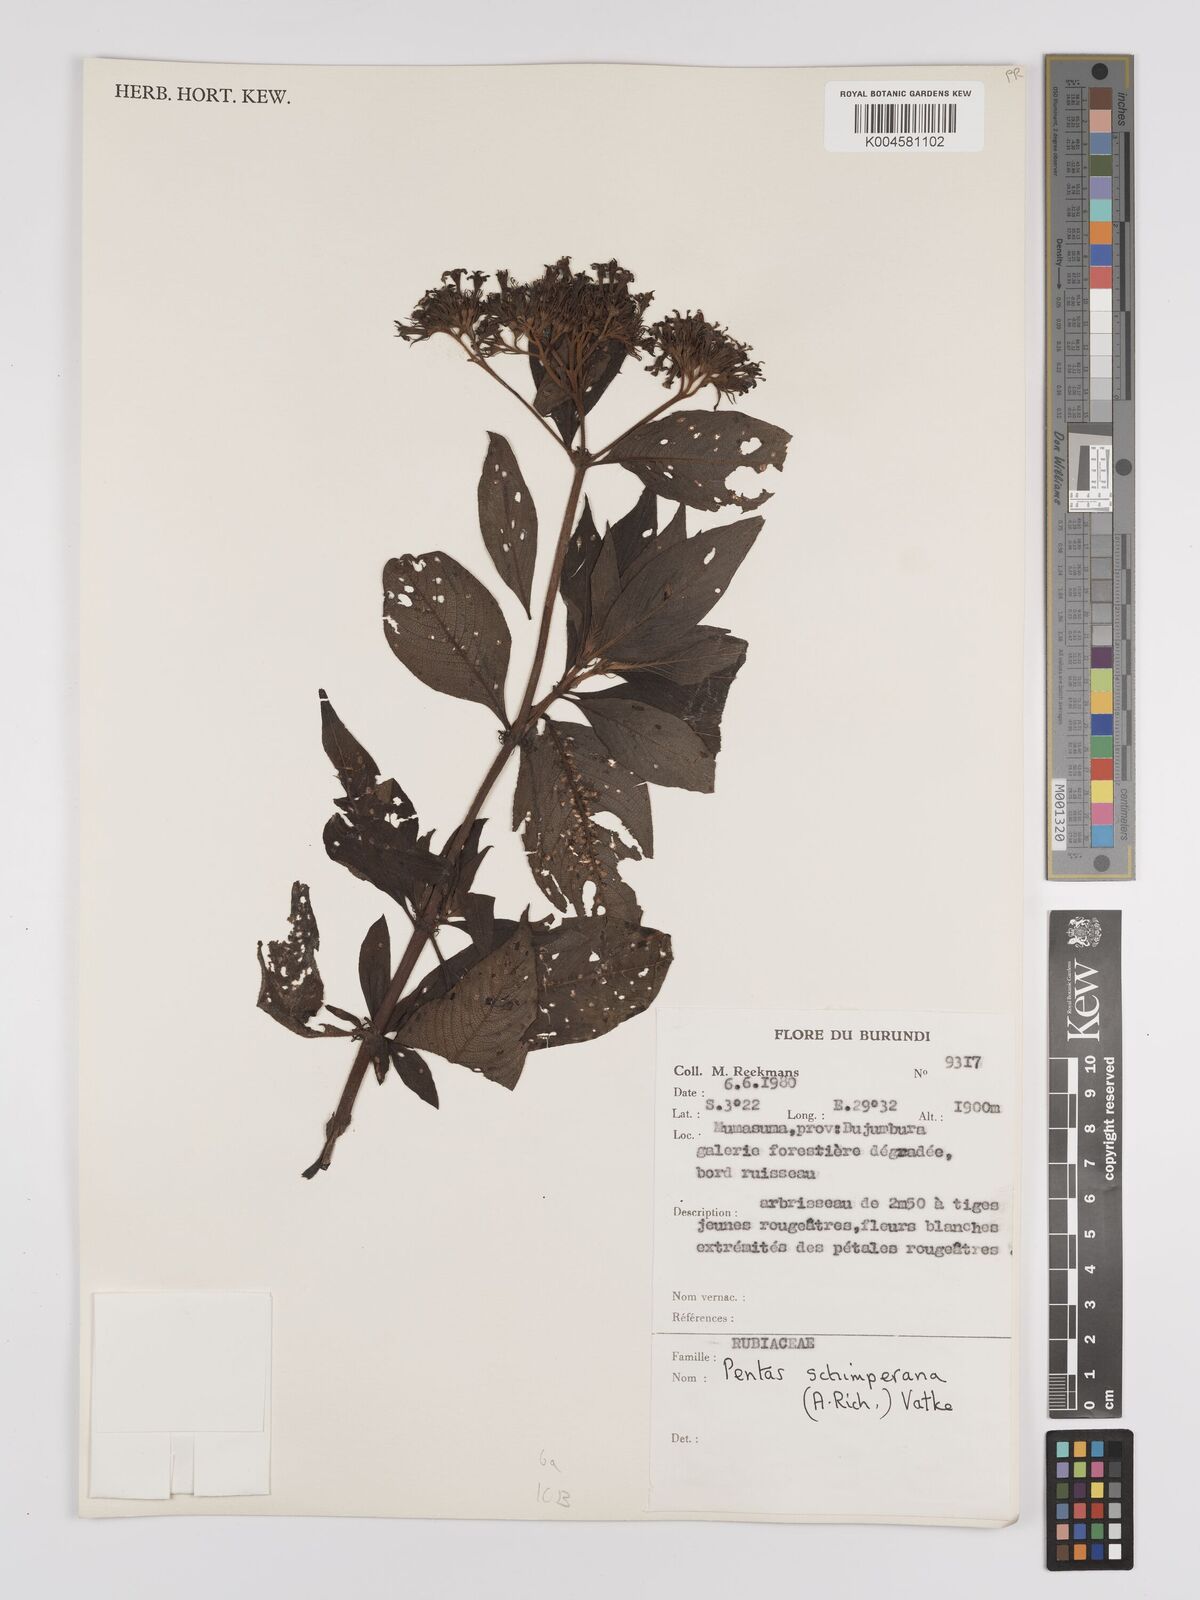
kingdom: Plantae
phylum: Tracheophyta
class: Magnoliopsida
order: Gentianales
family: Rubiaceae
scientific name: Rubiaceae
